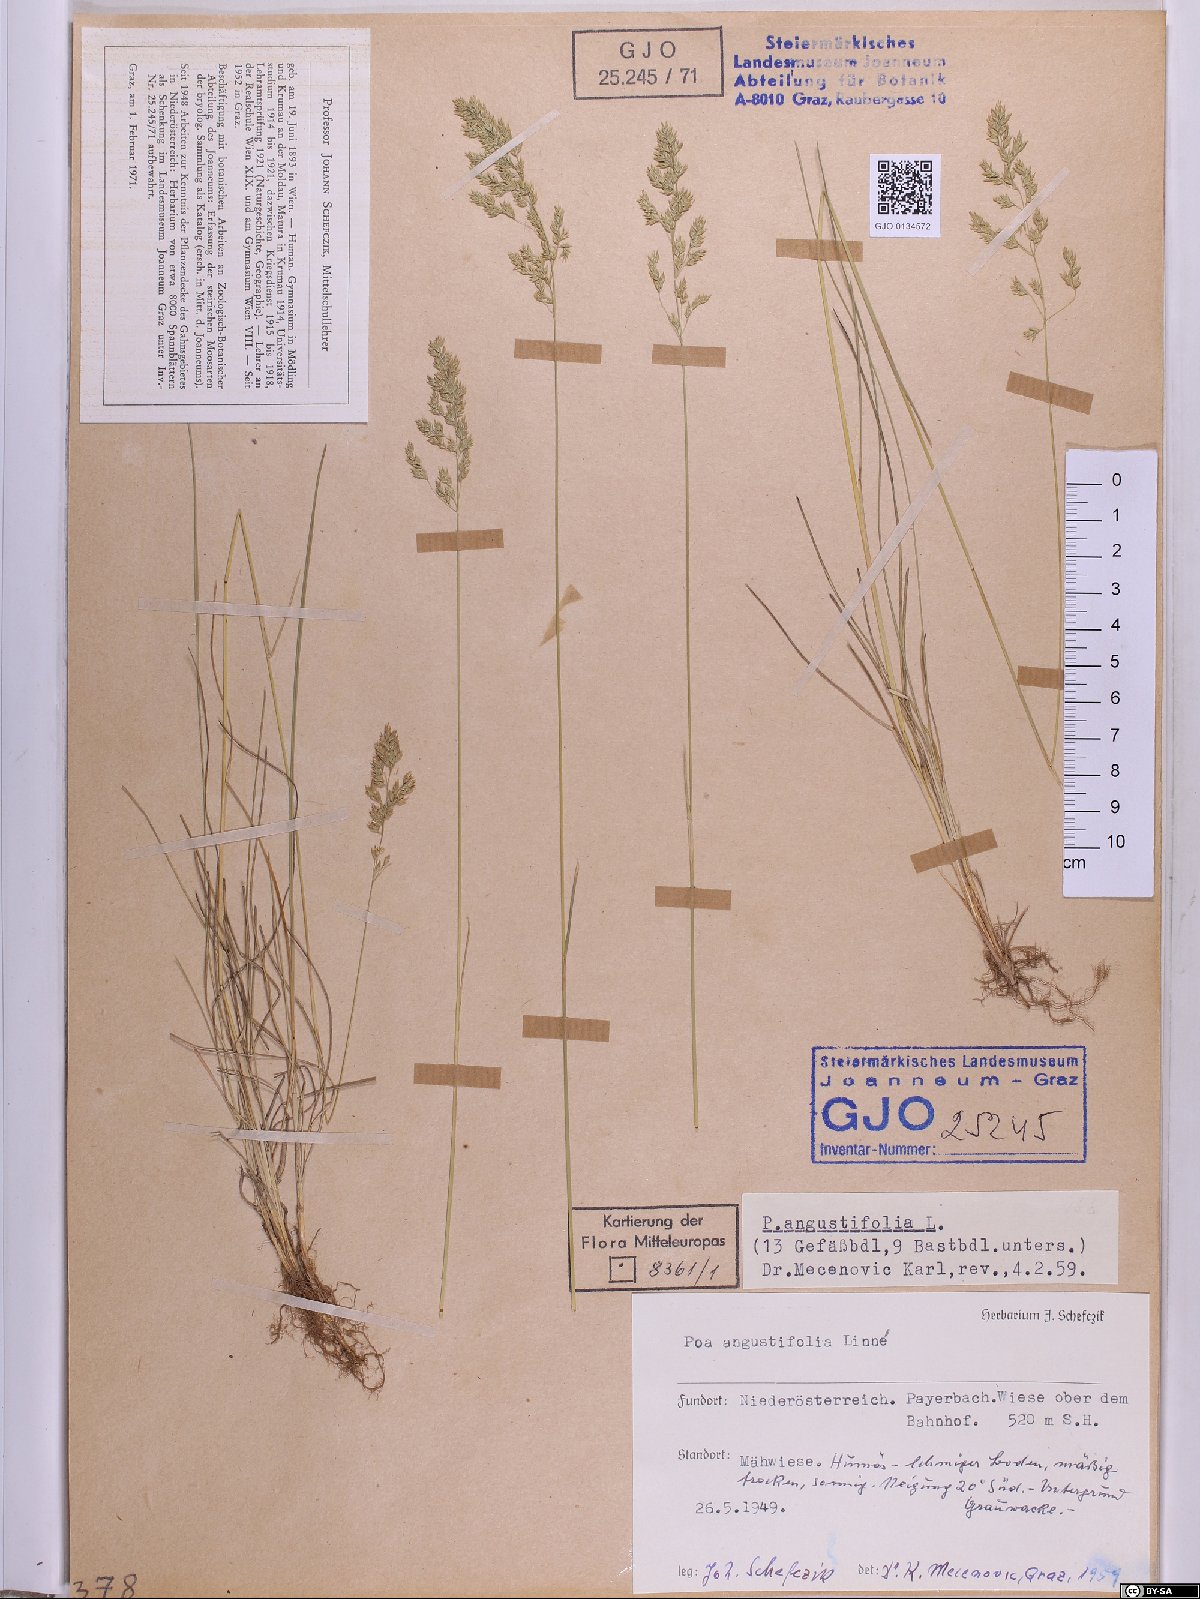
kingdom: Plantae
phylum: Tracheophyta
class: Liliopsida
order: Poales
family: Poaceae
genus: Poa
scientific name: Poa angustifolia
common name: Narrow-leaved meadow-grass
